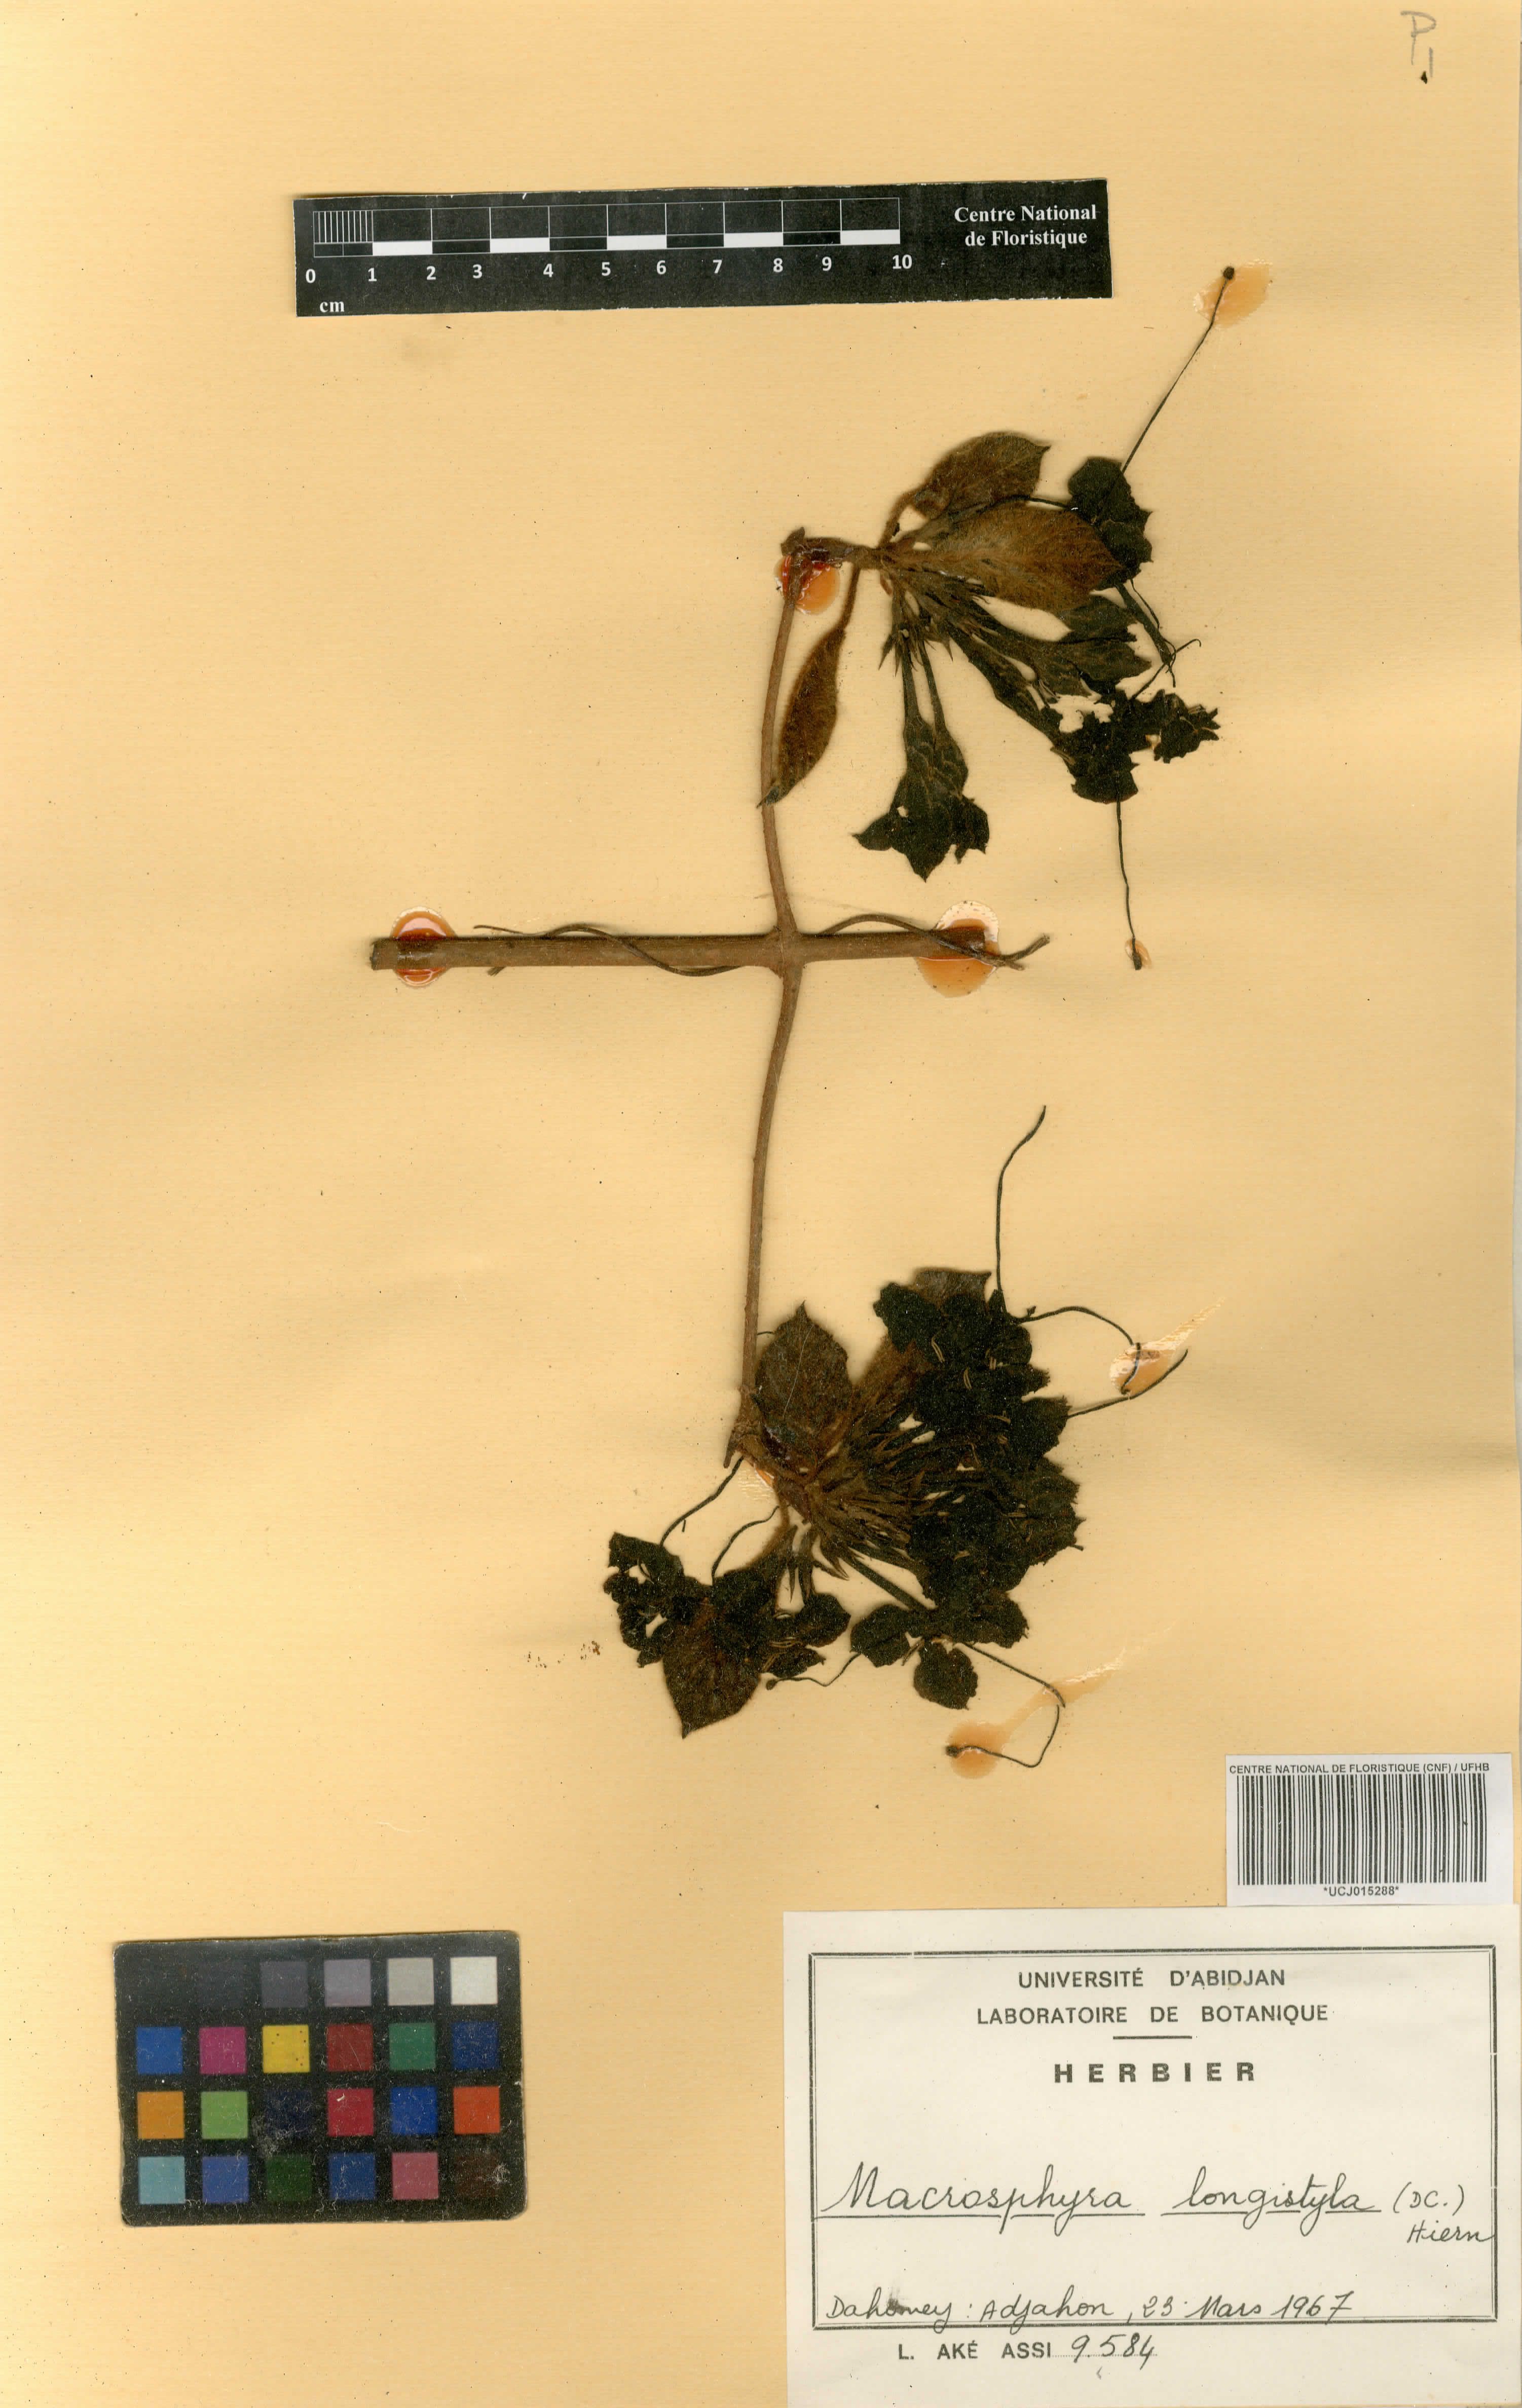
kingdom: Plantae
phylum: Tracheophyta
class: Magnoliopsida
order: Gentianales
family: Rubiaceae
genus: Macrosphyra
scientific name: Macrosphyra longistyla
